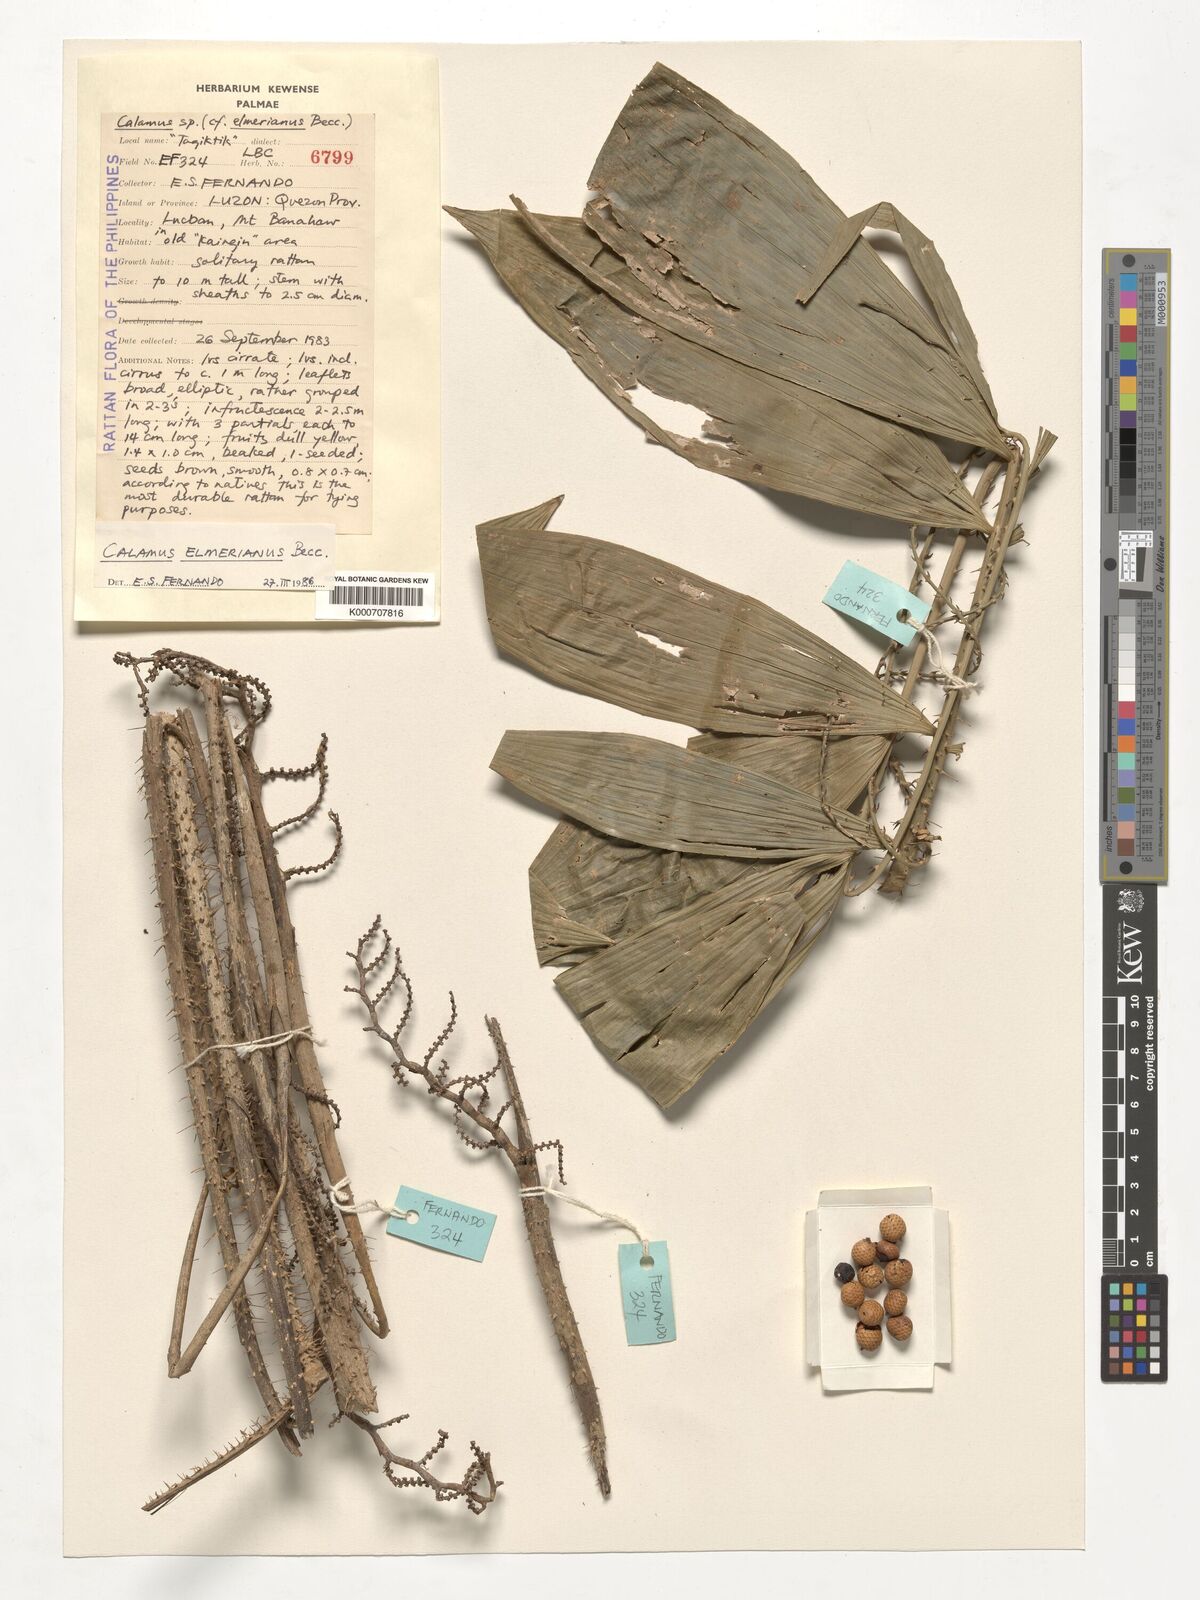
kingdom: Plantae
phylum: Tracheophyta
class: Liliopsida
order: Arecales
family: Arecaceae
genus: Calamus
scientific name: Calamus mitis
